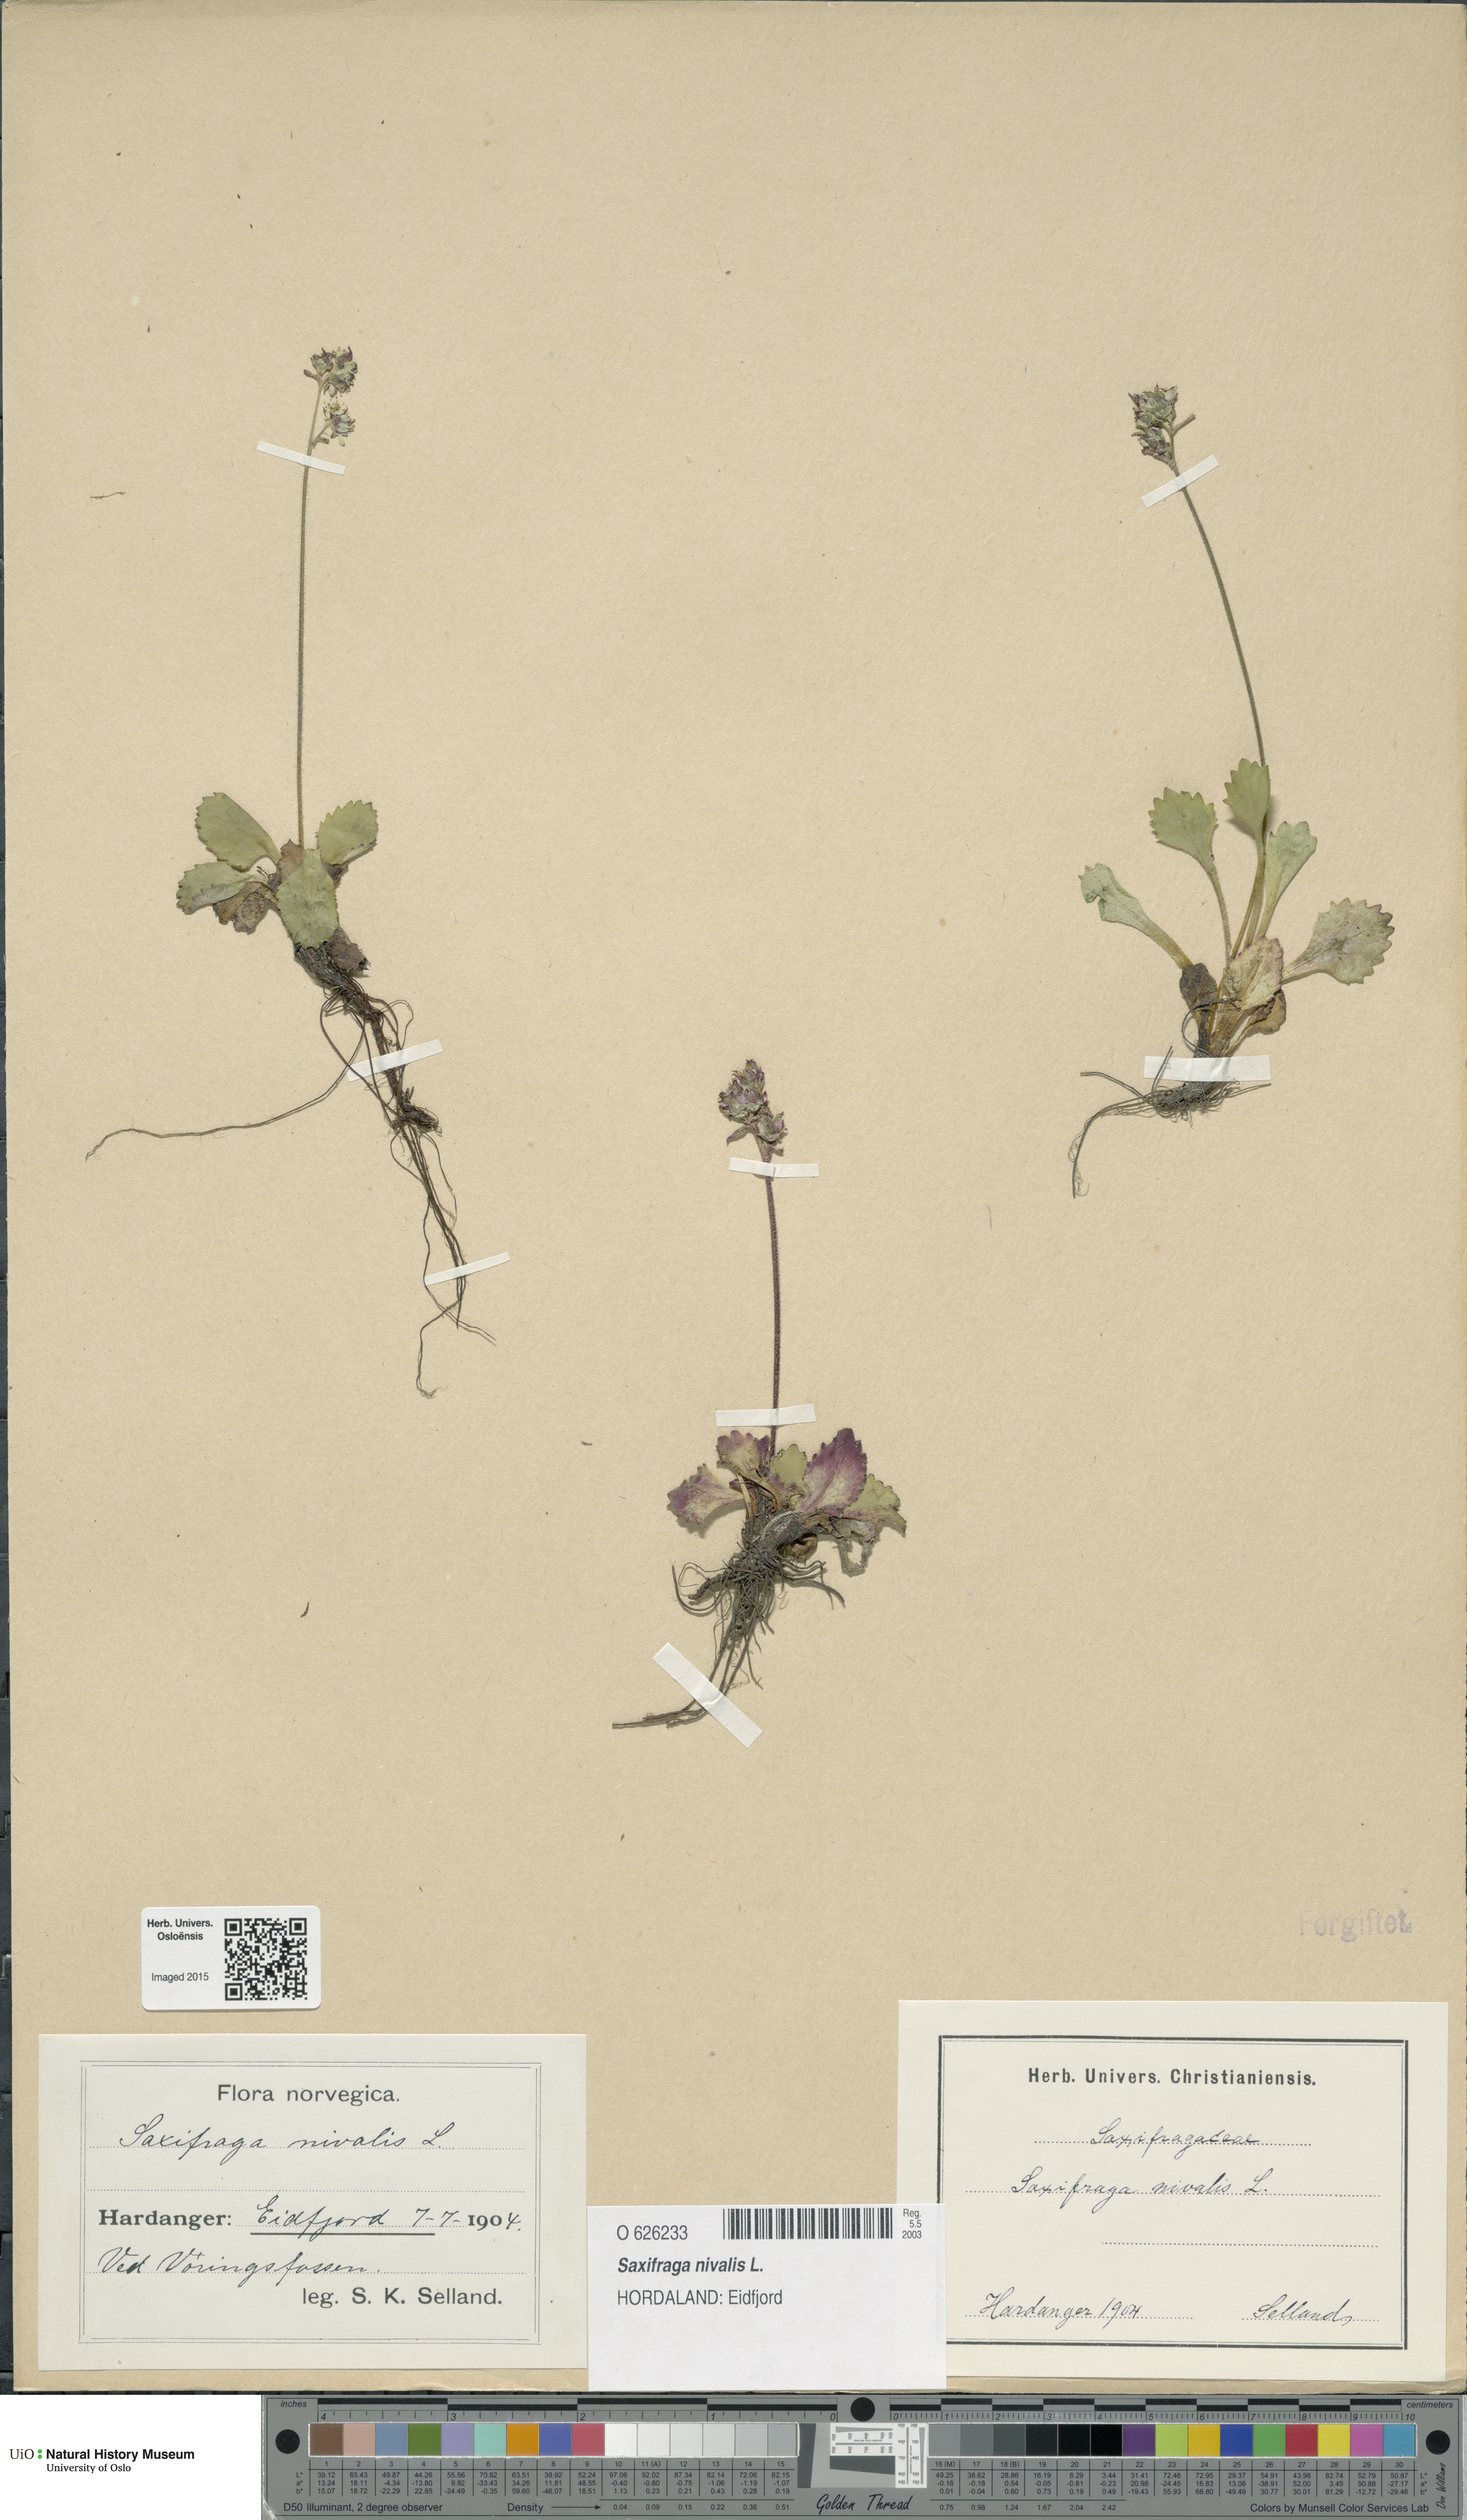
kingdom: Plantae
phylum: Tracheophyta
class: Magnoliopsida
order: Saxifragales
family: Saxifragaceae
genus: Micranthes
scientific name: Micranthes nivalis
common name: Alpine saxifrage
